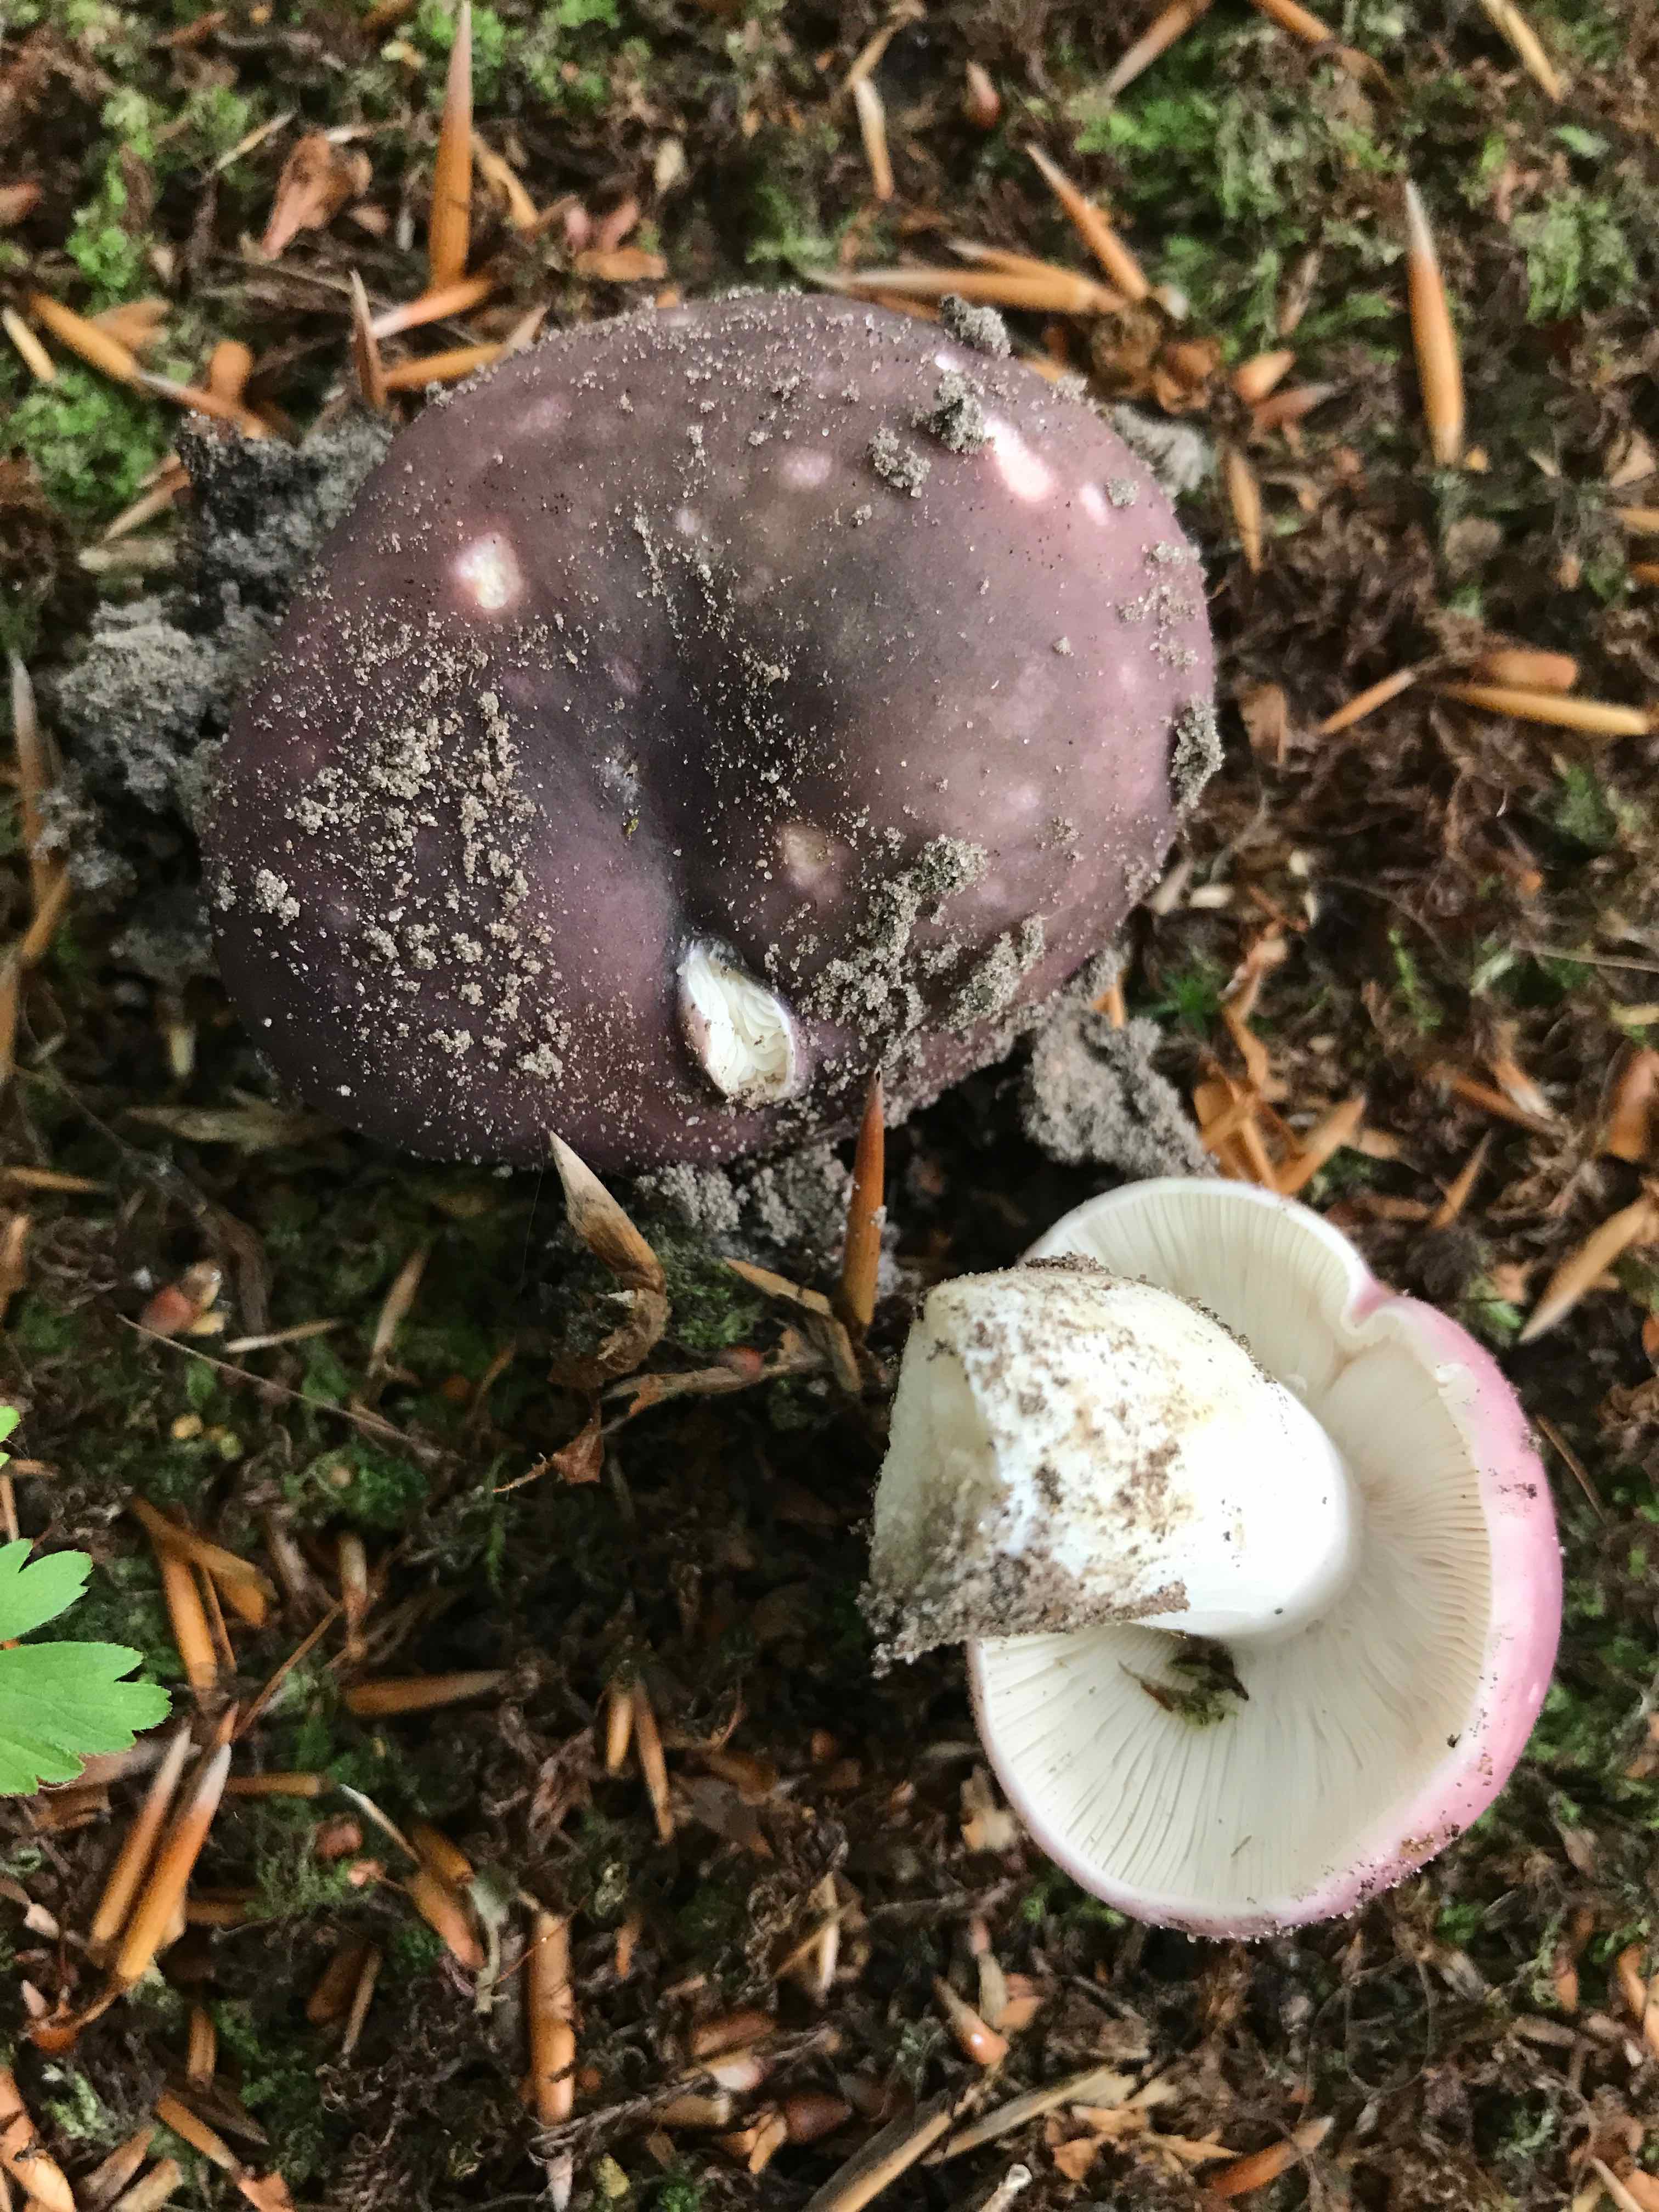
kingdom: Fungi
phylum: Basidiomycota
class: Agaricomycetes
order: Russulales
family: Russulaceae
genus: Russula
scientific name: Russula cyanoxantha
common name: broget skørhat
